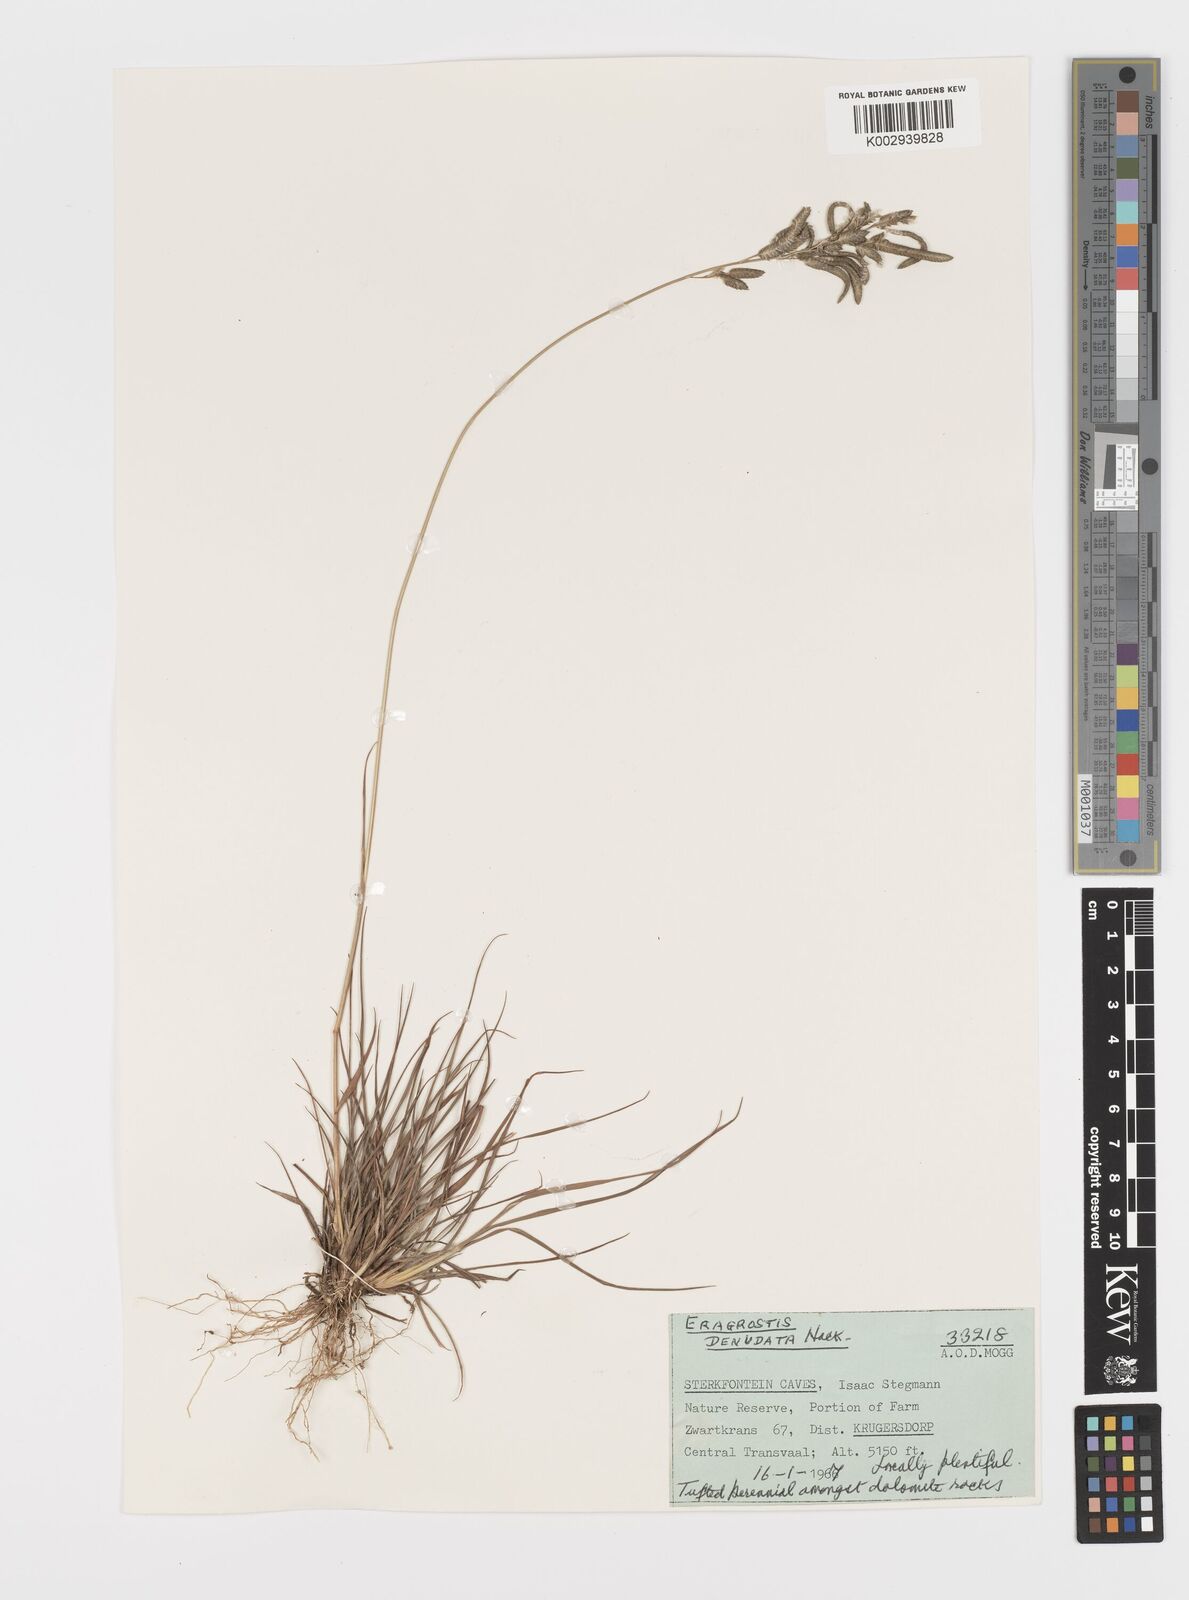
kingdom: Plantae
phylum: Tracheophyta
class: Liliopsida
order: Poales
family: Poaceae
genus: Eragrostis
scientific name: Eragrostis nindensis
